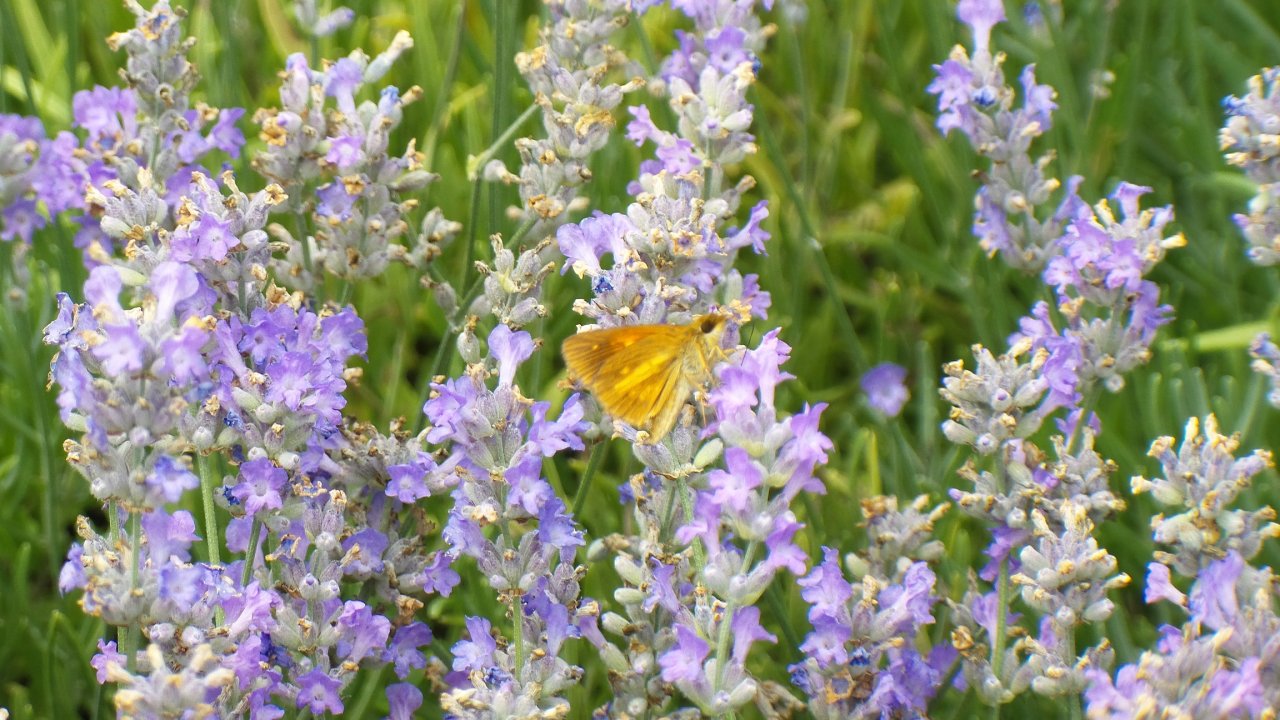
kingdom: Animalia
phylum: Arthropoda
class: Insecta
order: Lepidoptera
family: Hesperiidae
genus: Poanes
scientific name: Poanes viator
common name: Broad-winged Skipper
